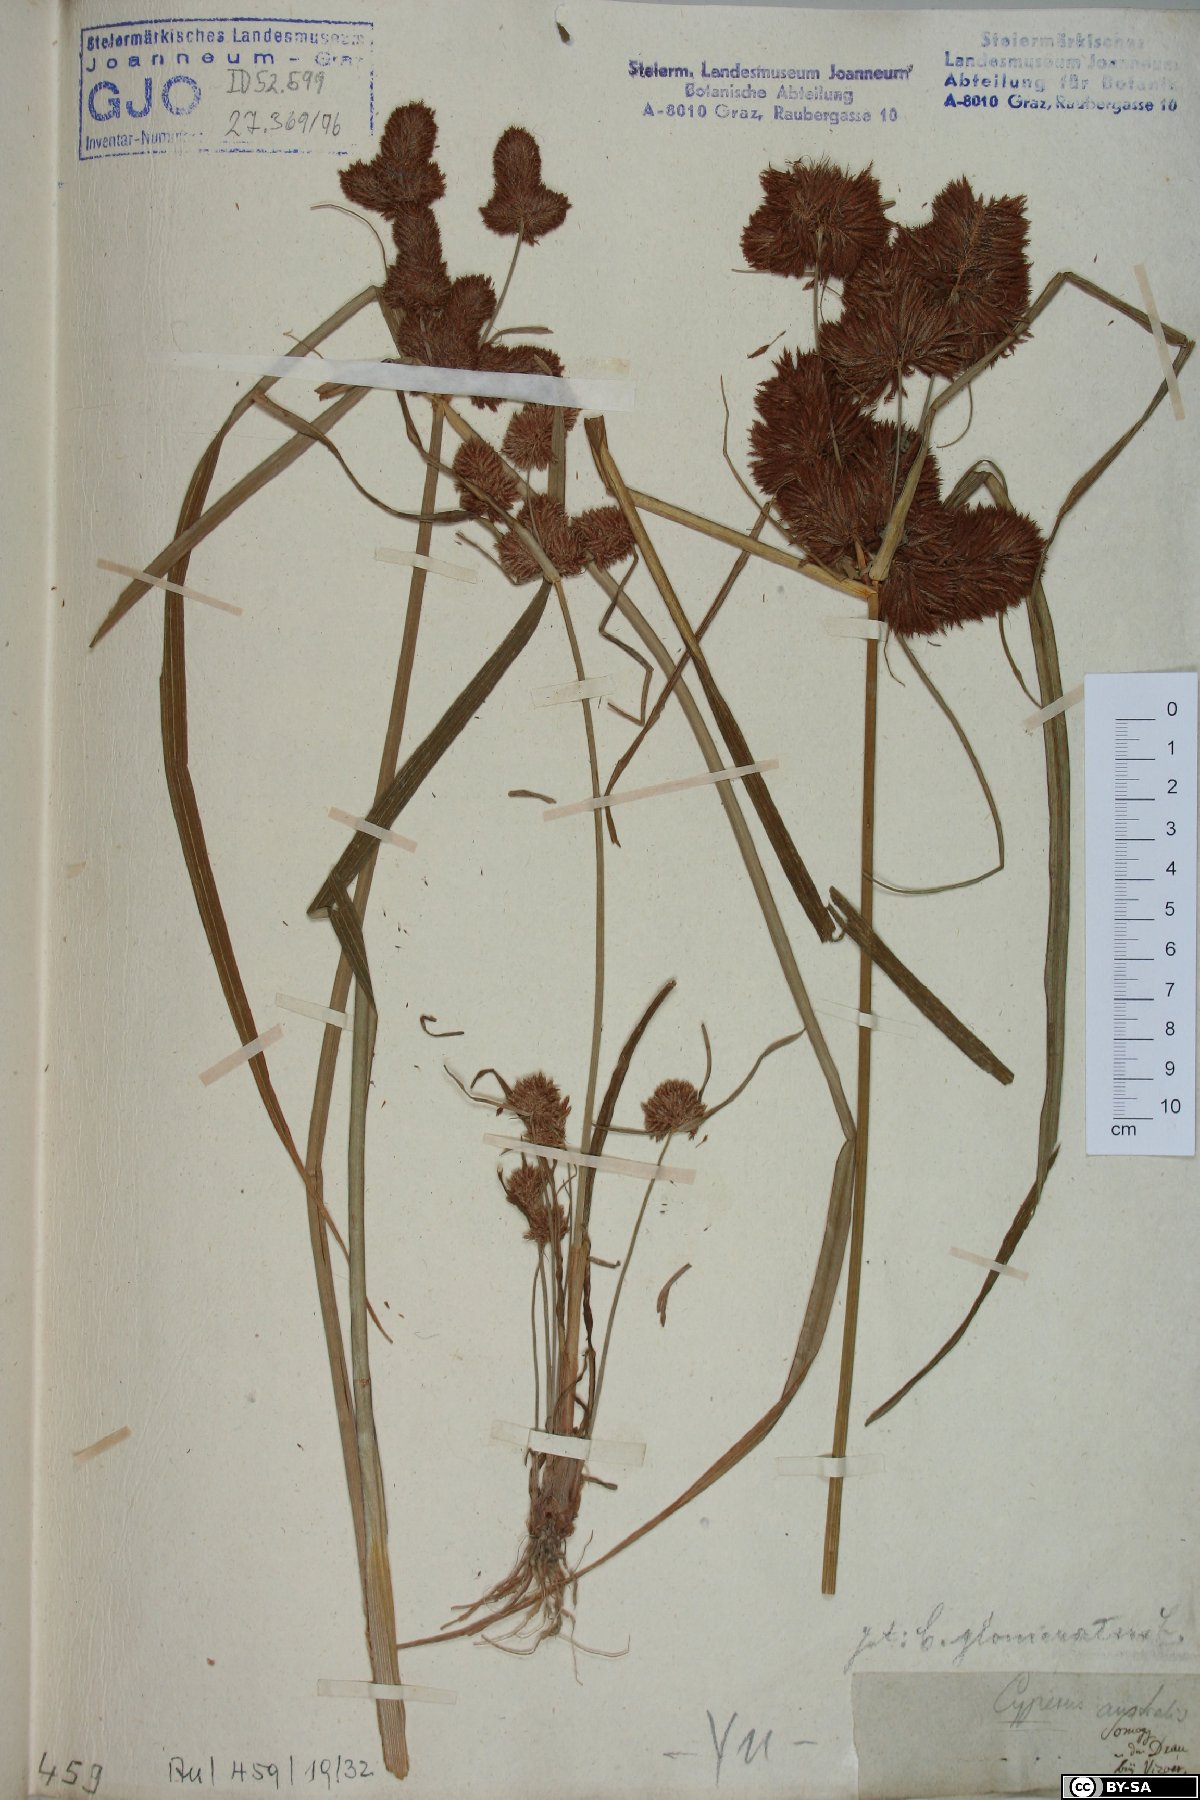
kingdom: Plantae
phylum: Tracheophyta
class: Liliopsida
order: Poales
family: Cyperaceae
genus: Cyperus
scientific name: Cyperus glomeratus
